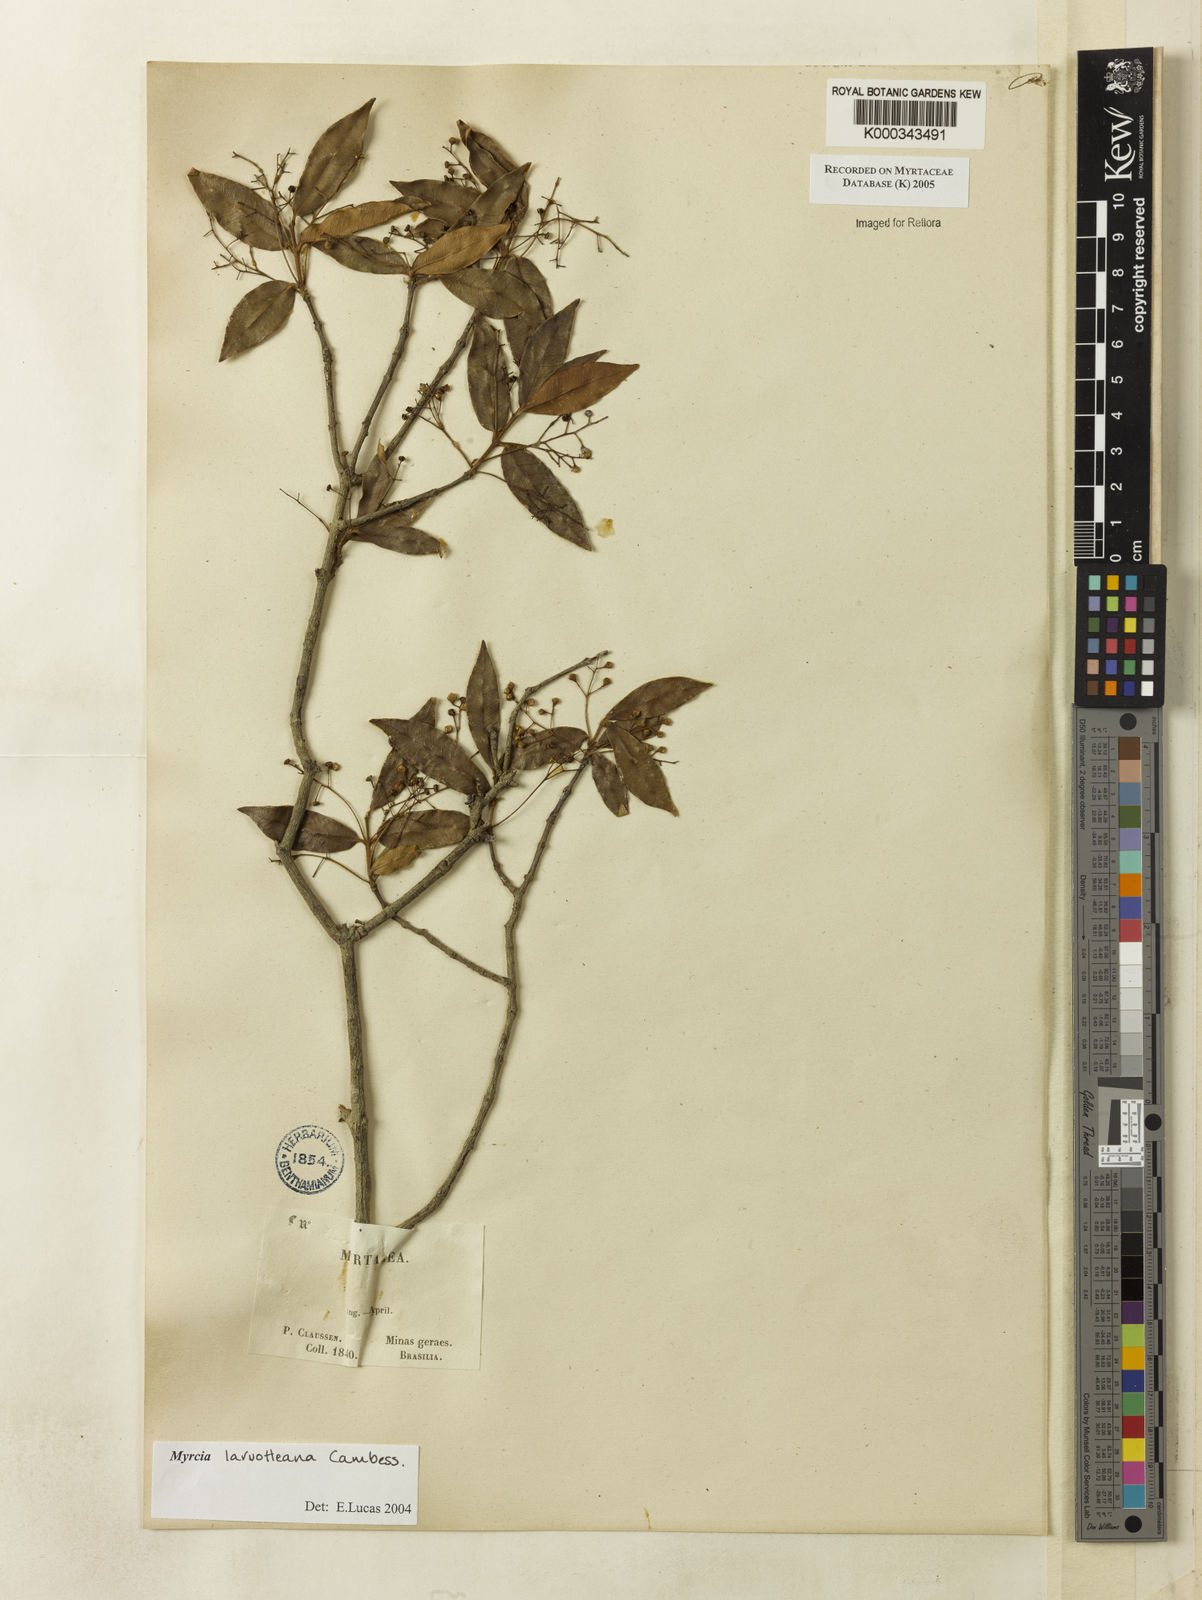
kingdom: Plantae
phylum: Tracheophyta
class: Magnoliopsida
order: Myrtales
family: Myrtaceae
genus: Myrcia
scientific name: Myrcia laruotteana
